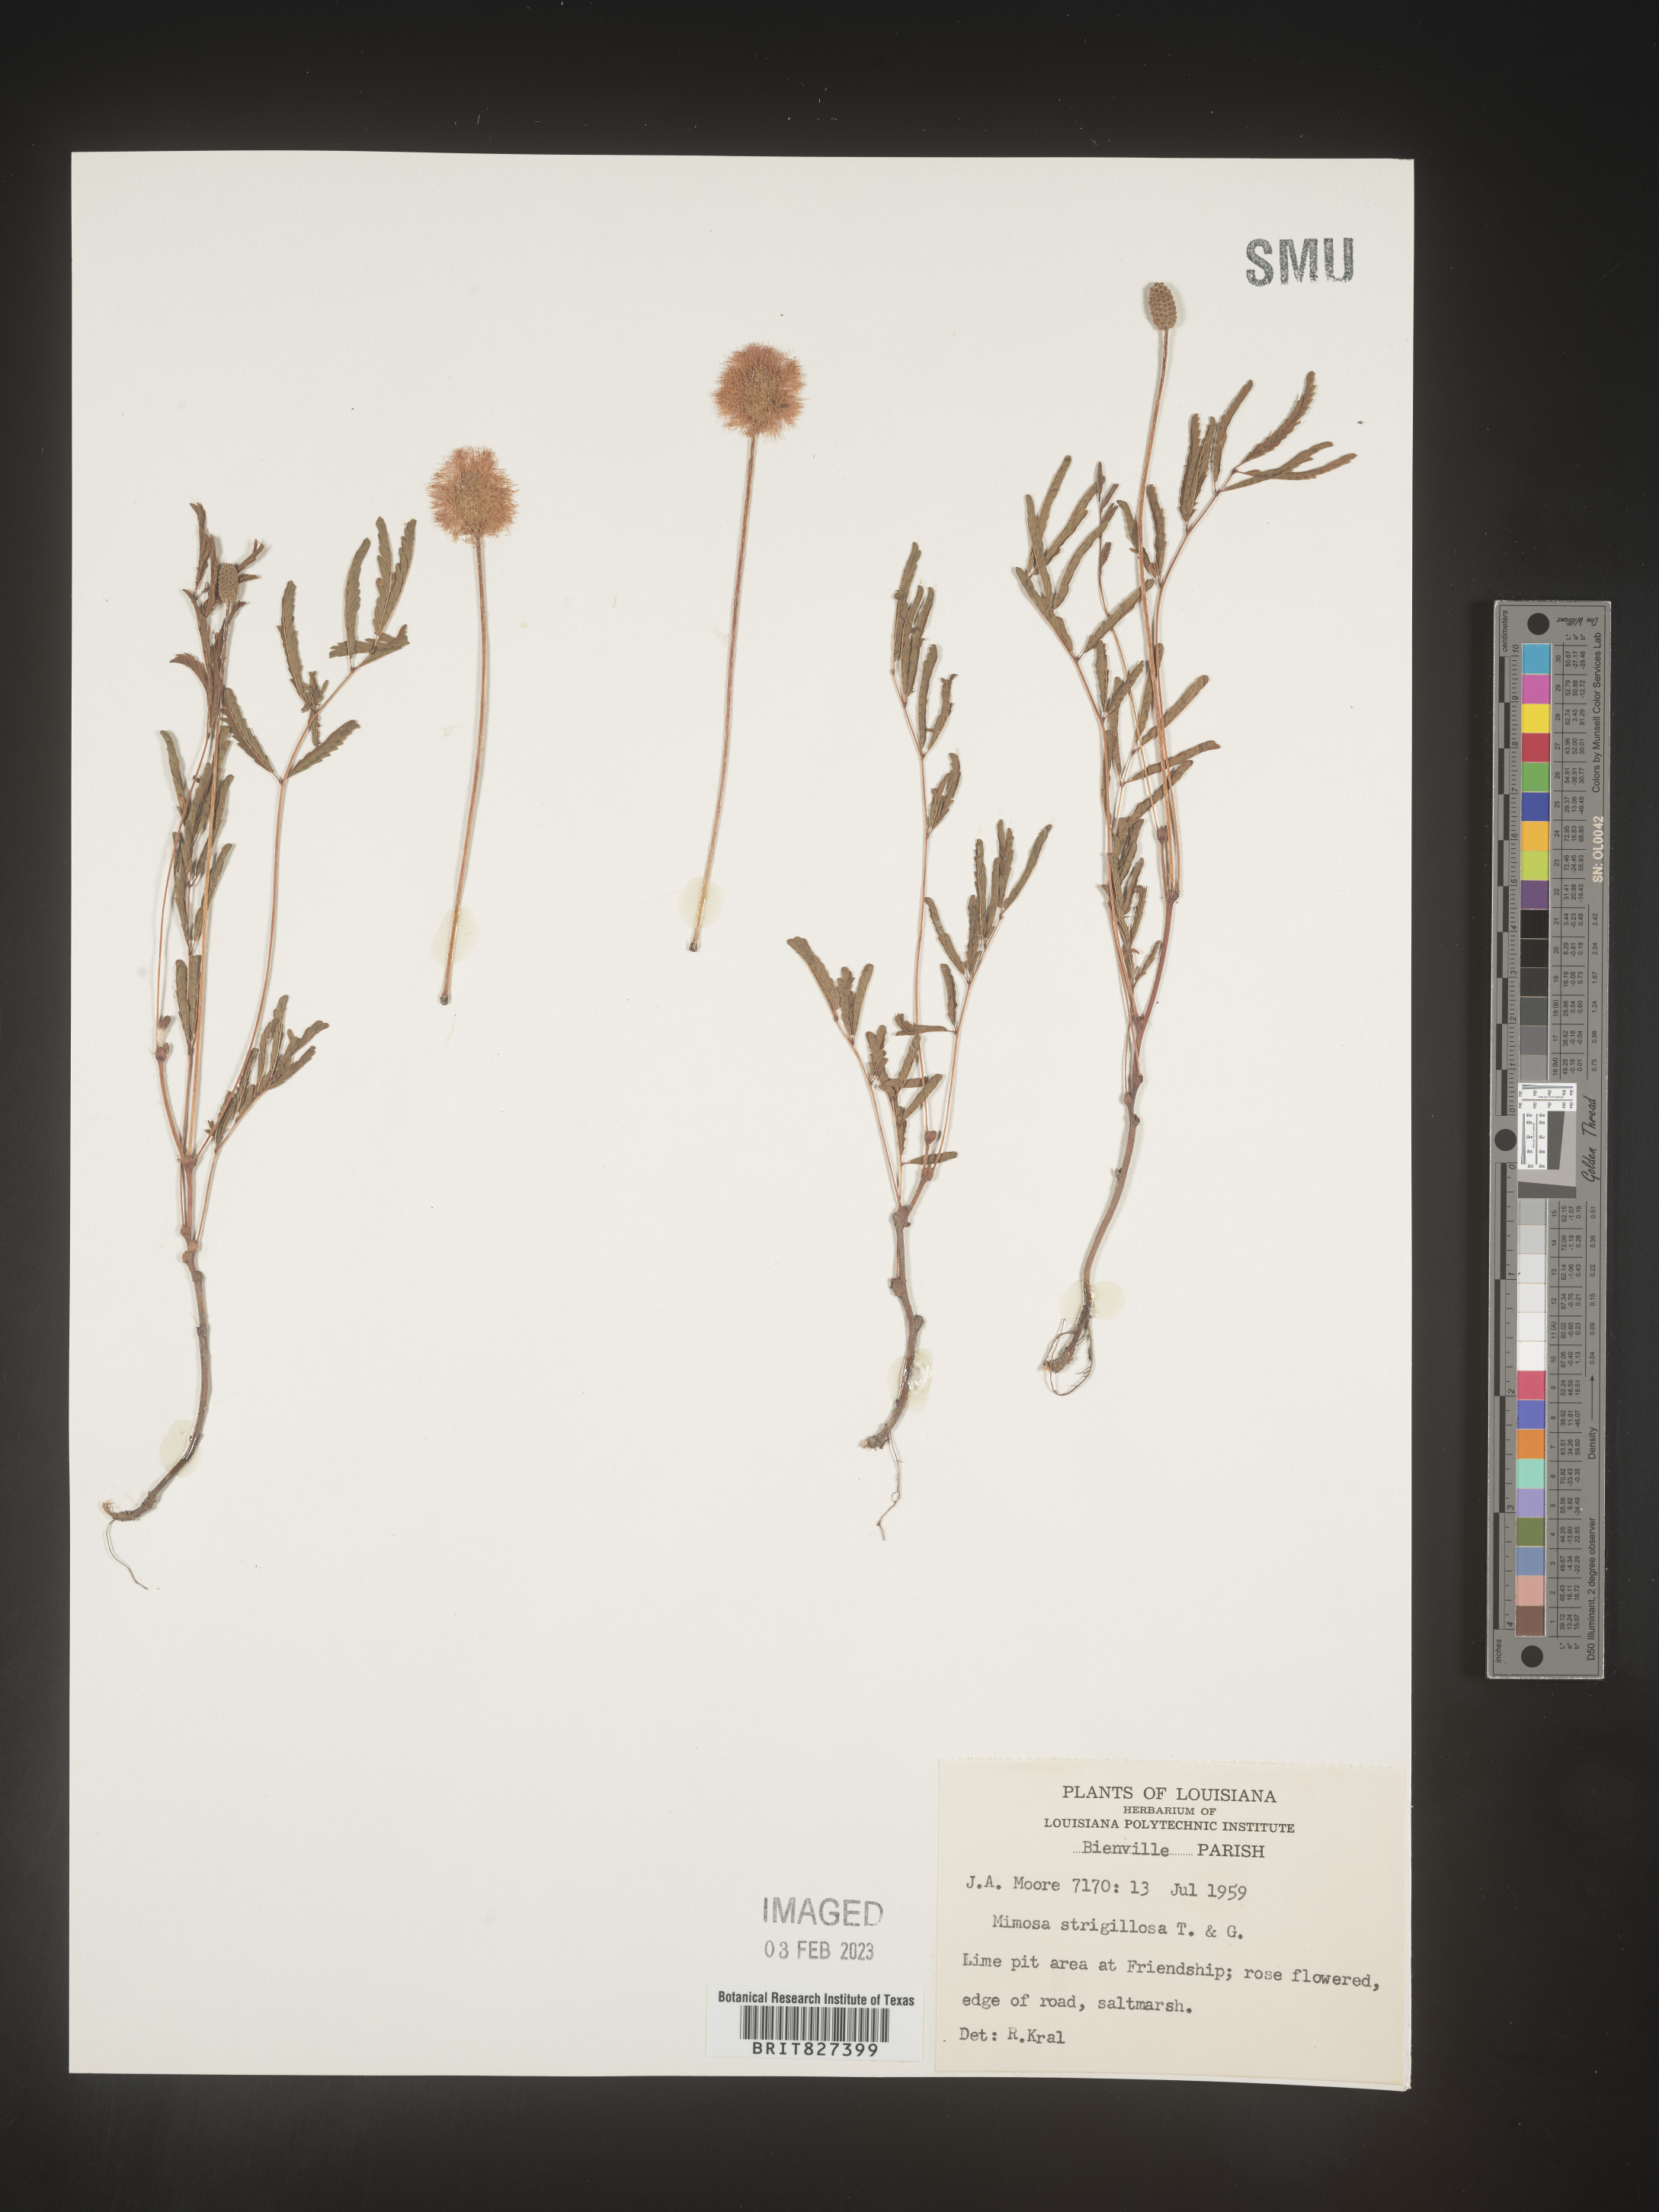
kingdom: Plantae
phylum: Tracheophyta
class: Magnoliopsida
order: Fabales
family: Fabaceae
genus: Mimosa
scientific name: Mimosa strigillosa
